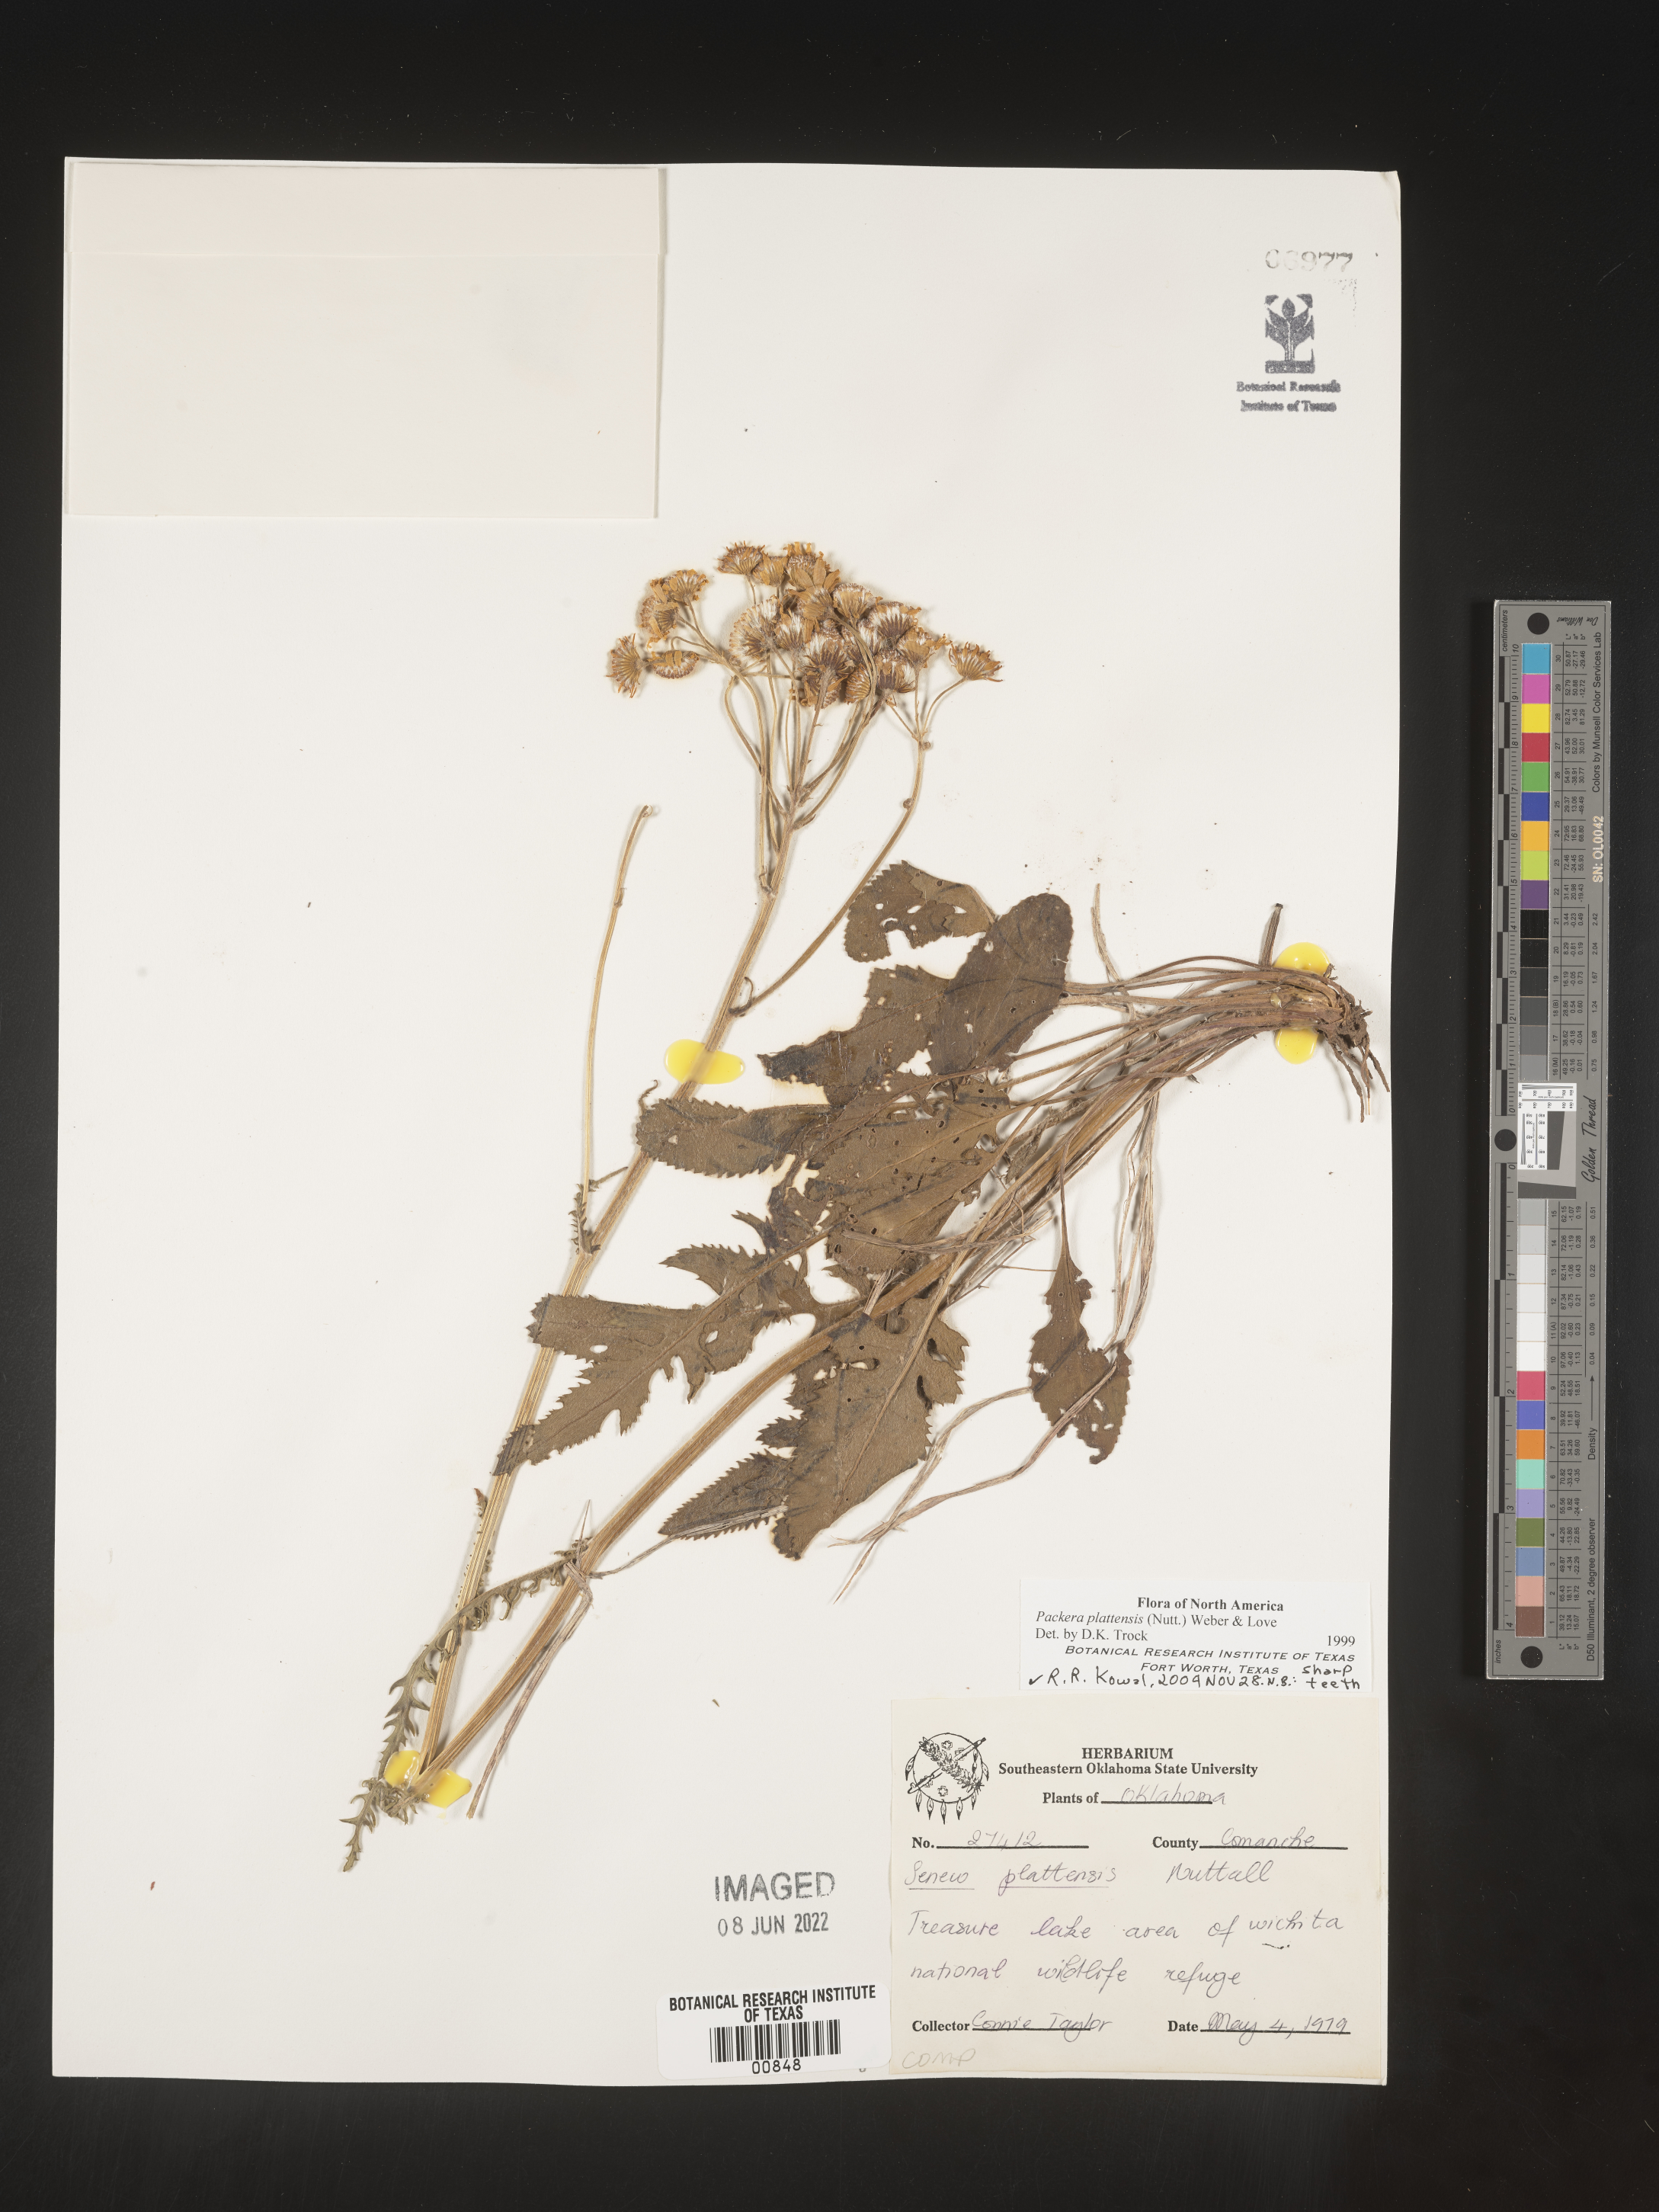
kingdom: Plantae
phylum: Tracheophyta
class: Magnoliopsida
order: Asterales
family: Asteraceae
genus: Packera
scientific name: Packera plattensis
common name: Prairie groundsel
